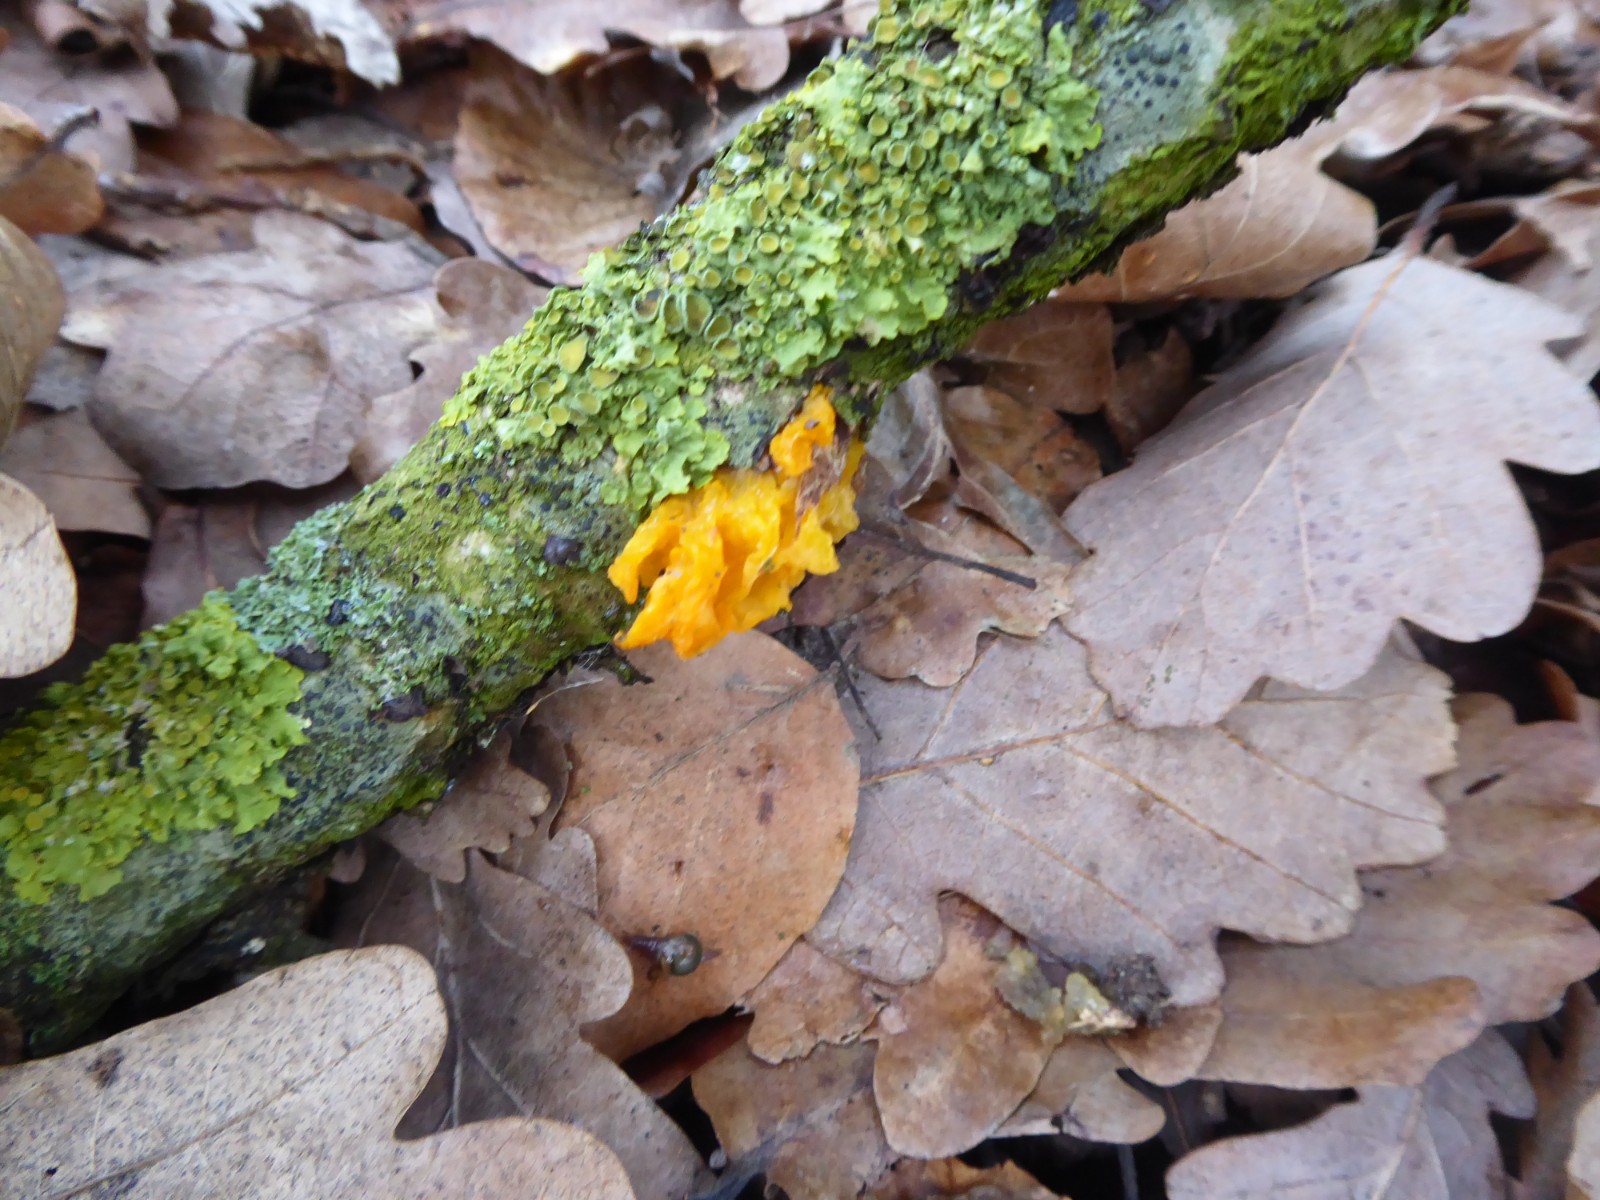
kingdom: Fungi
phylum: Basidiomycota
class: Tremellomycetes
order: Tremellales
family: Tremellaceae
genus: Tremella
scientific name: Tremella mesenterica
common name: gul bævresvamp
